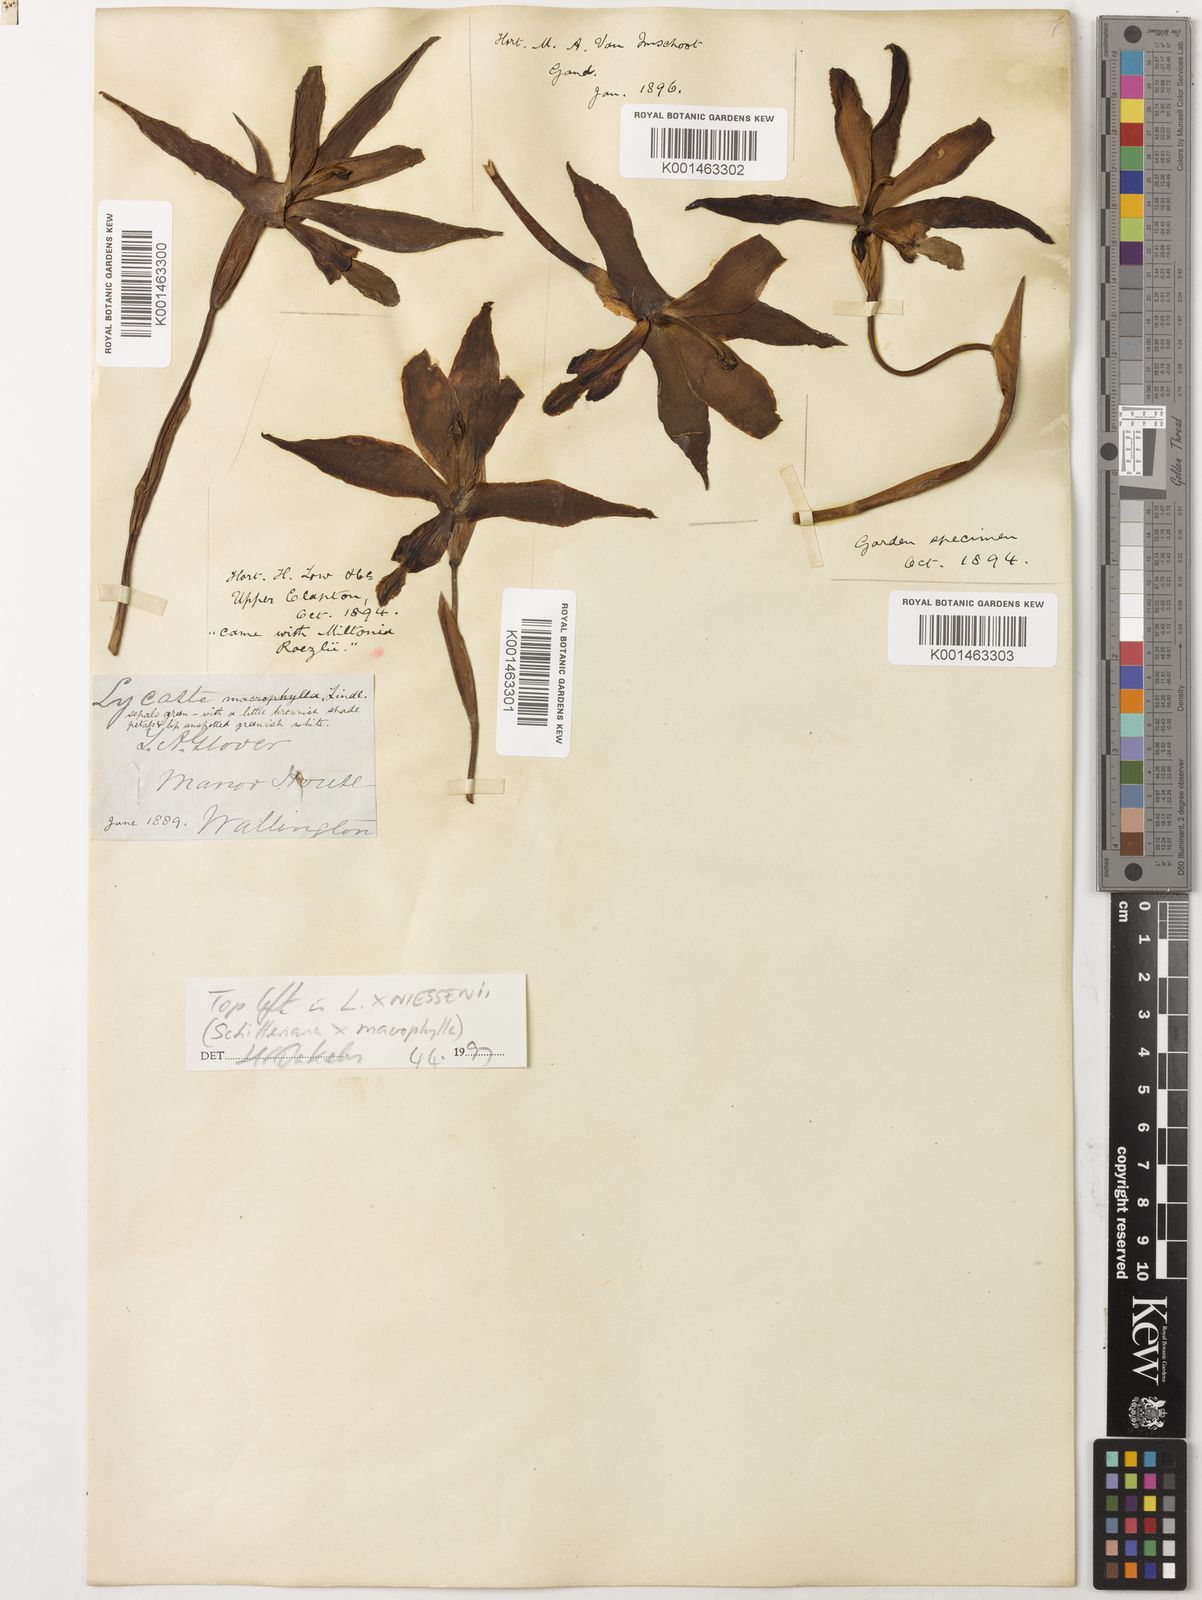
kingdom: Plantae
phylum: Tracheophyta
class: Liliopsida
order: Asparagales
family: Orchidaceae
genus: Lycaste
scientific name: Lycaste macrophylla
